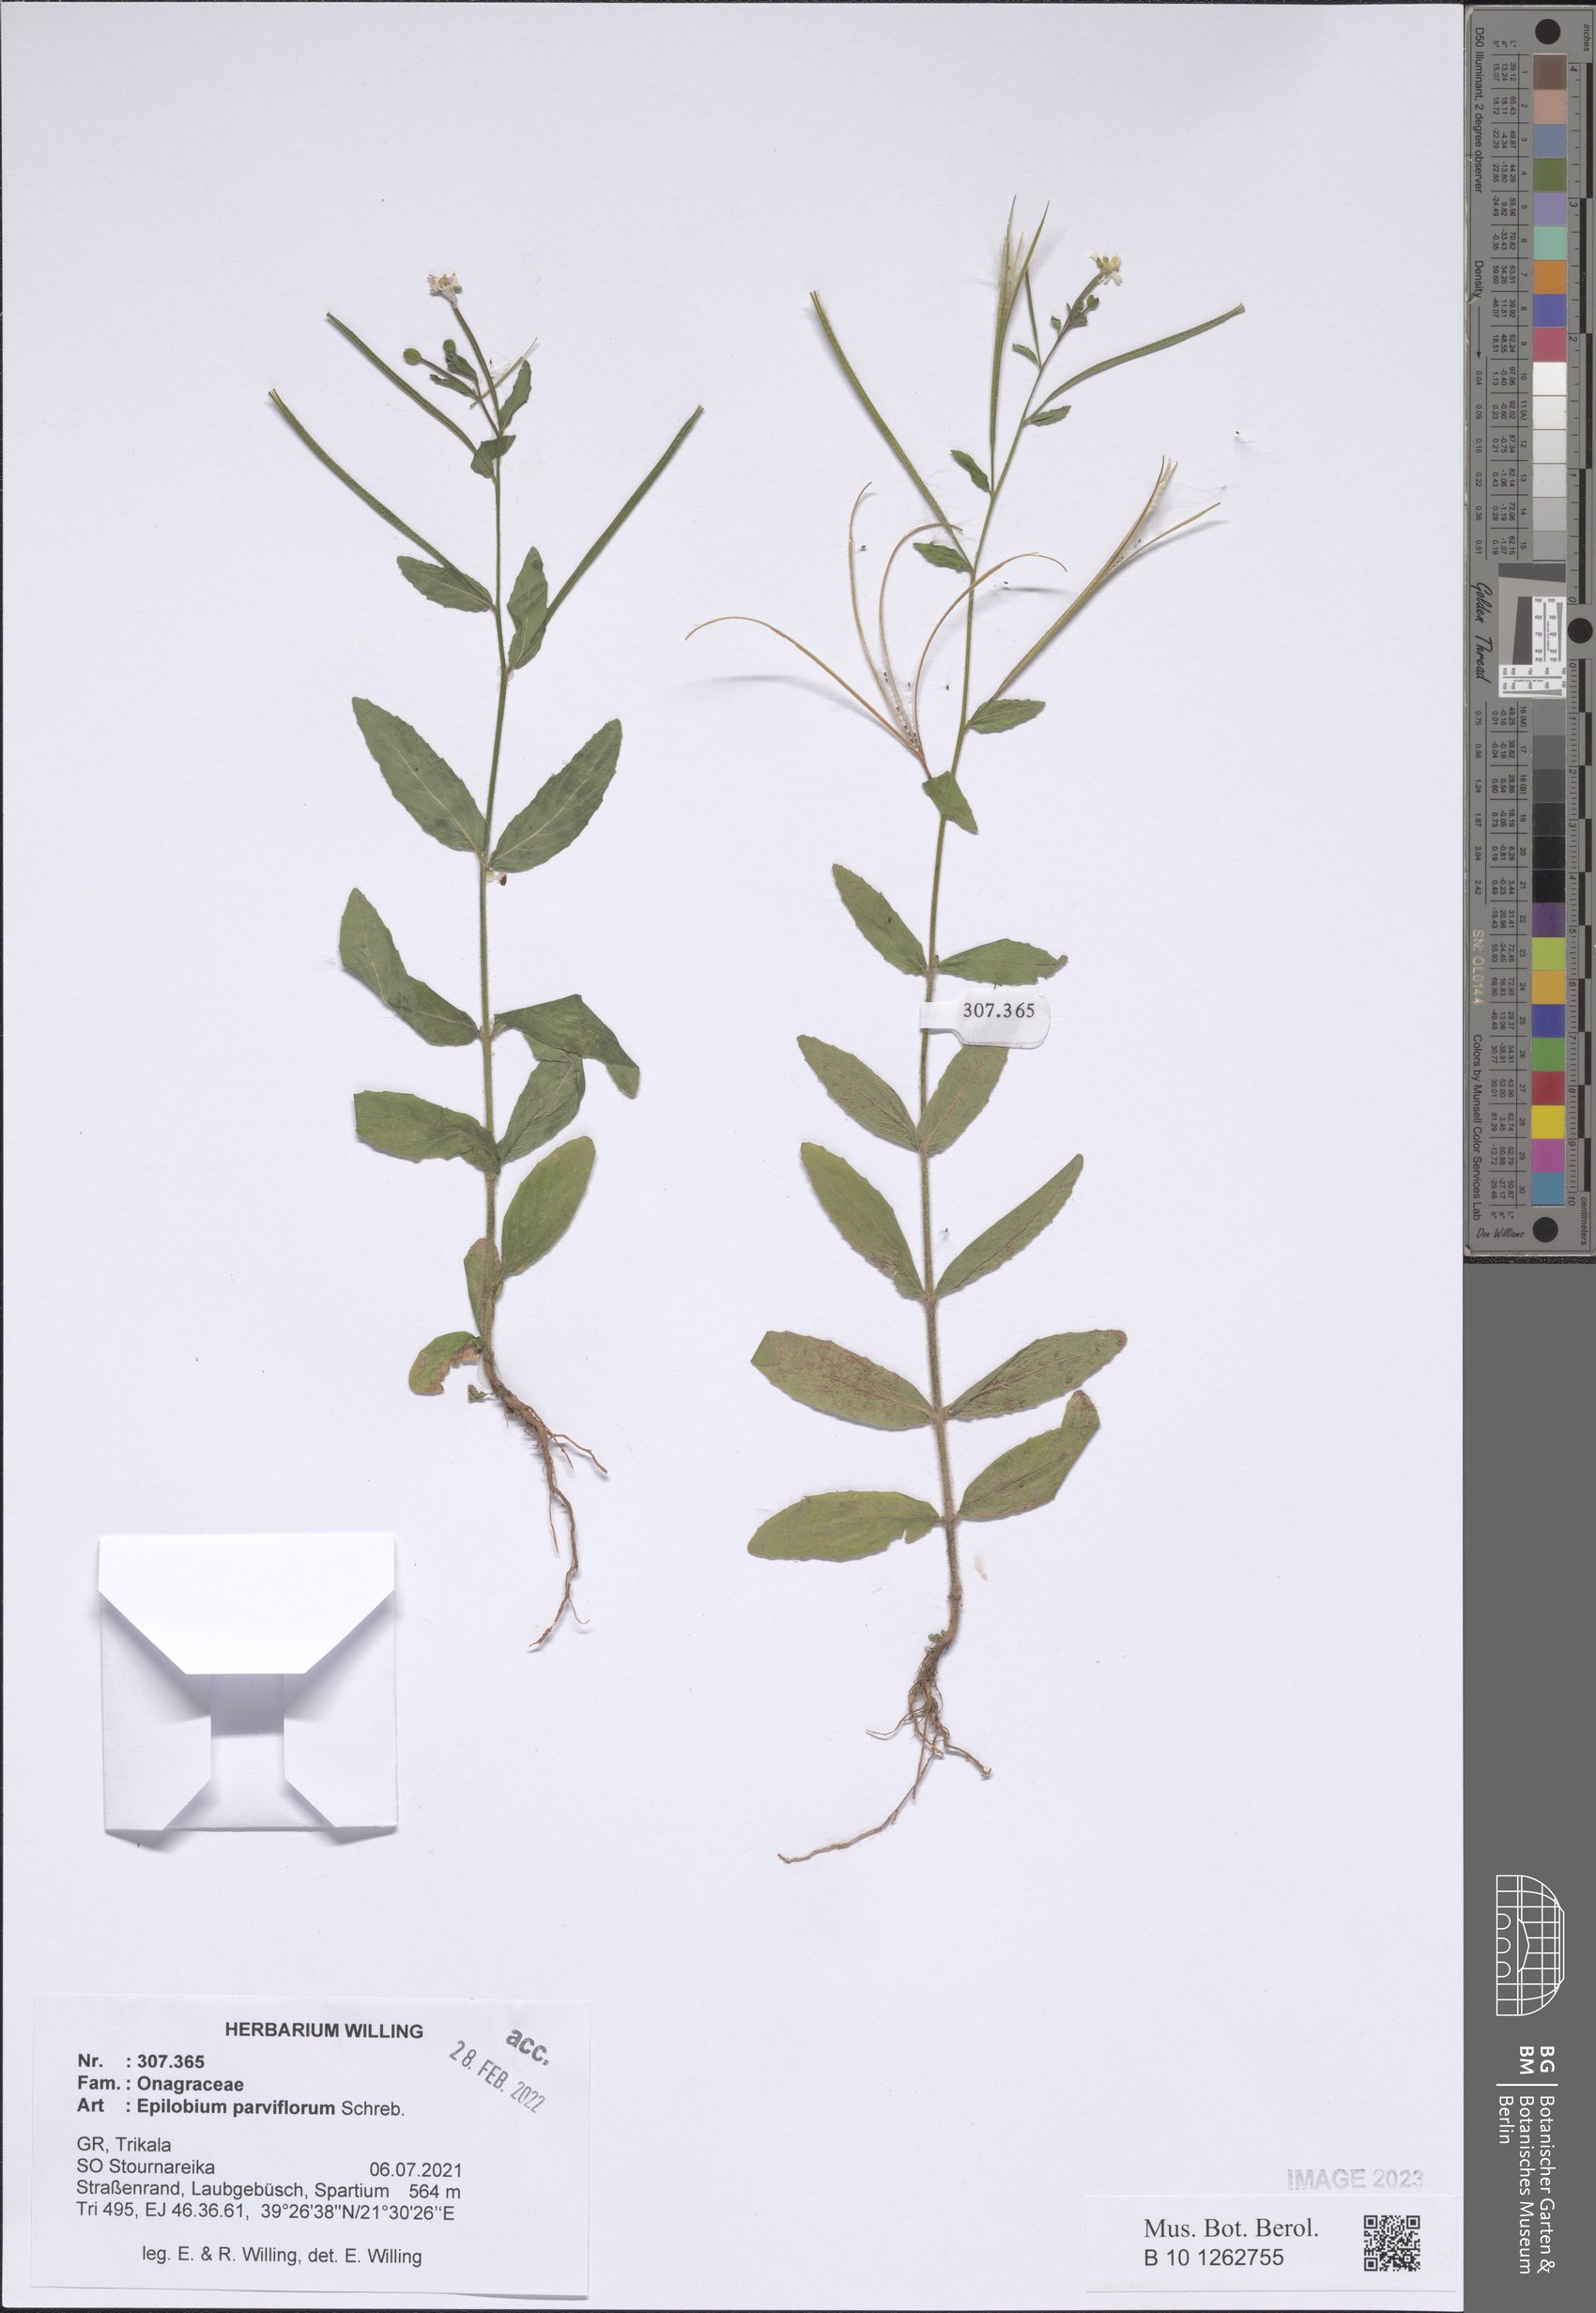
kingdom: Plantae
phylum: Tracheophyta
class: Magnoliopsida
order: Myrtales
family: Onagraceae
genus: Epilobium
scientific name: Epilobium parviflorum
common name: Hoary willowherb
